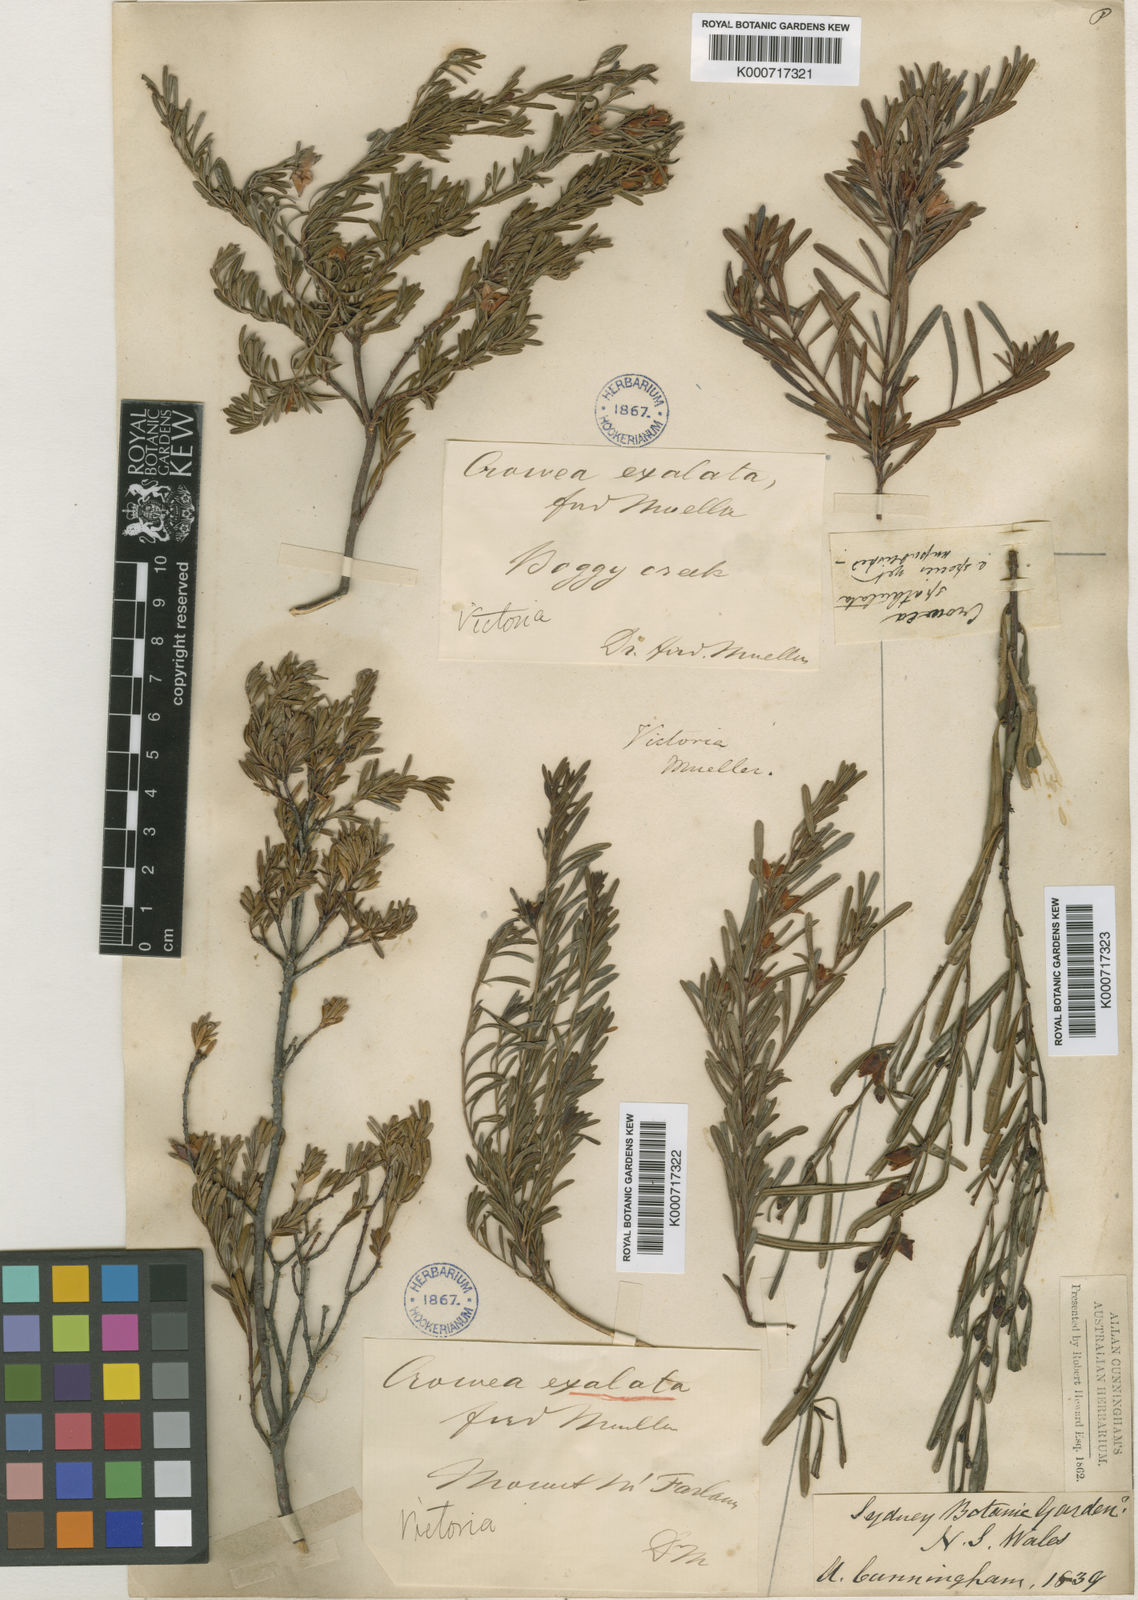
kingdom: Plantae
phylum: Tracheophyta
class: Magnoliopsida
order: Sapindales
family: Rutaceae
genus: Crowea
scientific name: Crowea exalata
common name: Small crowea
